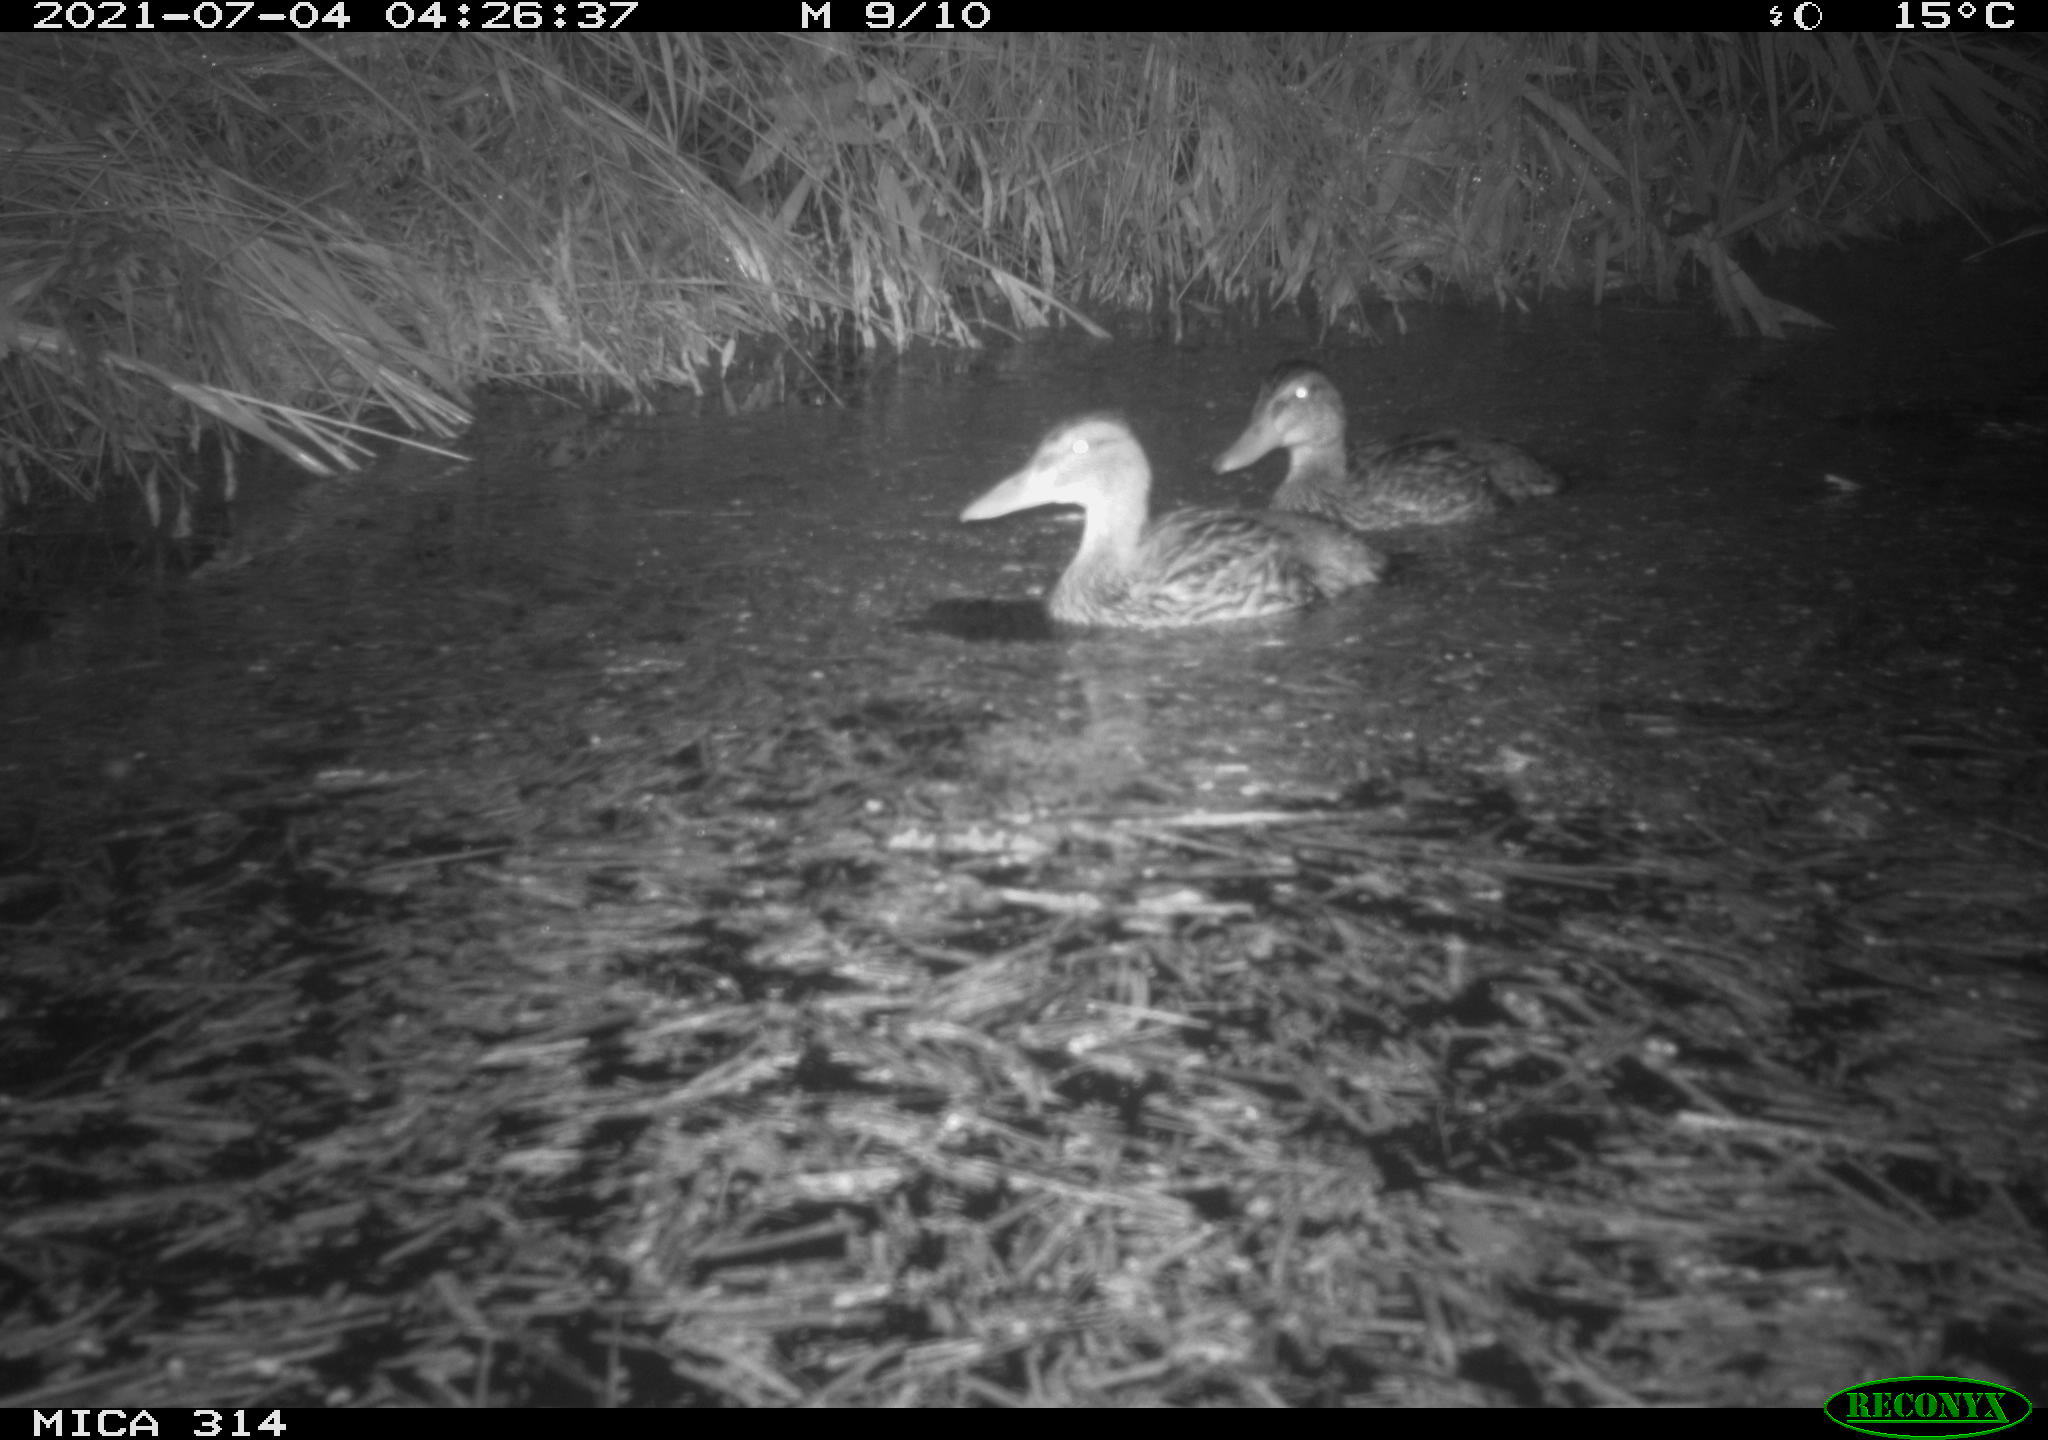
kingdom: Animalia
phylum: Chordata
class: Aves
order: Anseriformes
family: Anatidae
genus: Mareca
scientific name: Mareca strepera
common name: Gadwall
